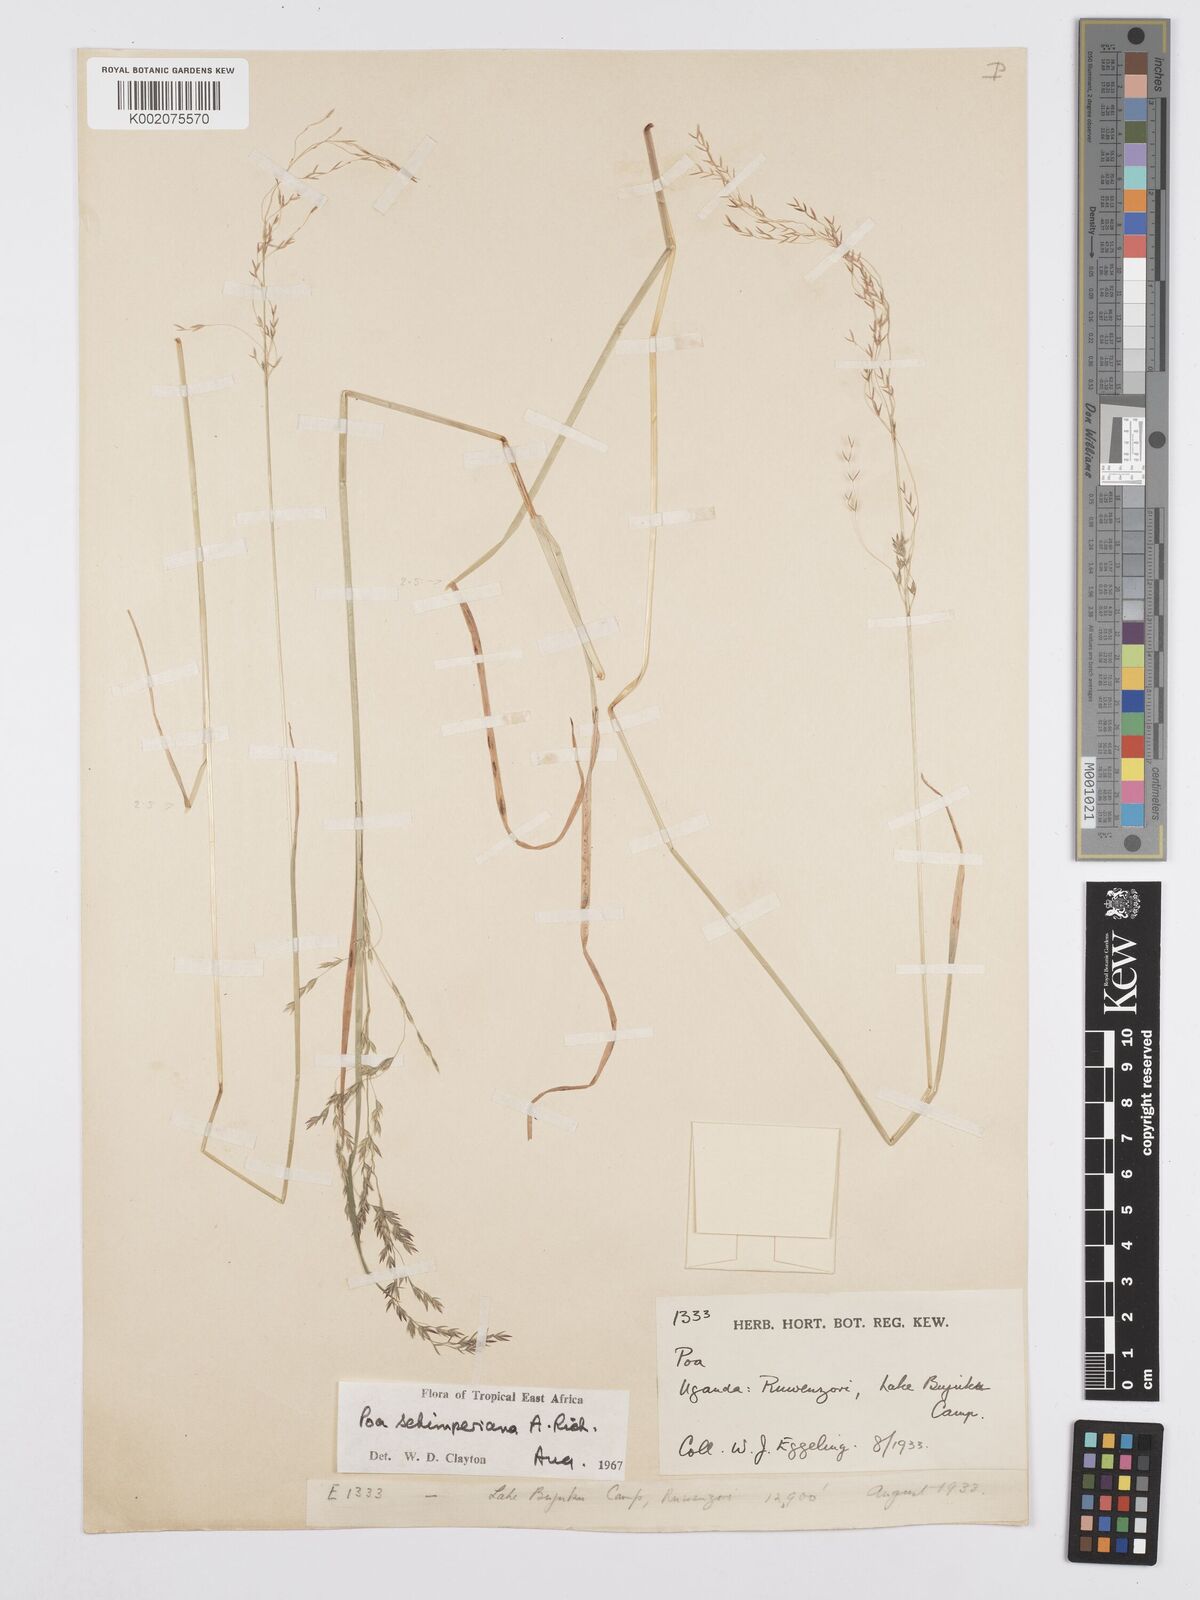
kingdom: Plantae
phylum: Tracheophyta
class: Liliopsida
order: Poales
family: Poaceae
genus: Poa
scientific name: Poa schimperiana
